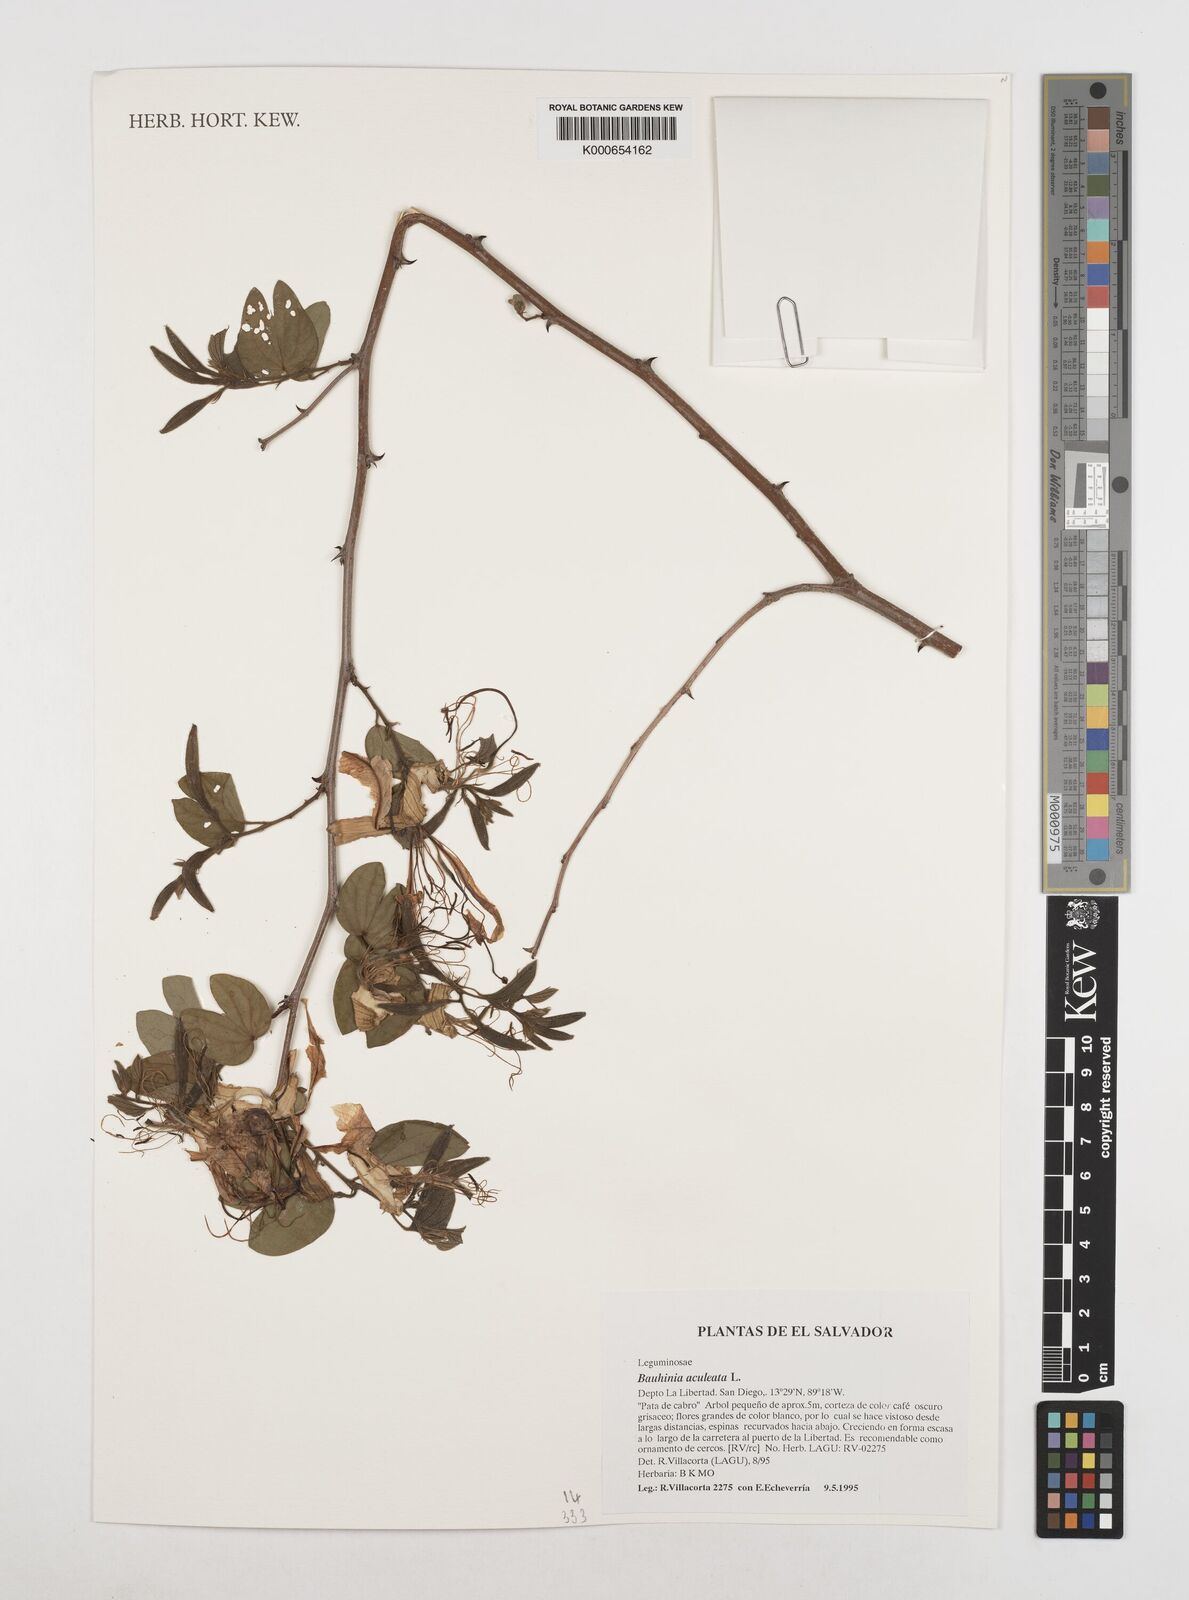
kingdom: Plantae
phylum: Tracheophyta
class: Magnoliopsida
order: Fabales
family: Fabaceae
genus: Bauhinia
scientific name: Bauhinia
